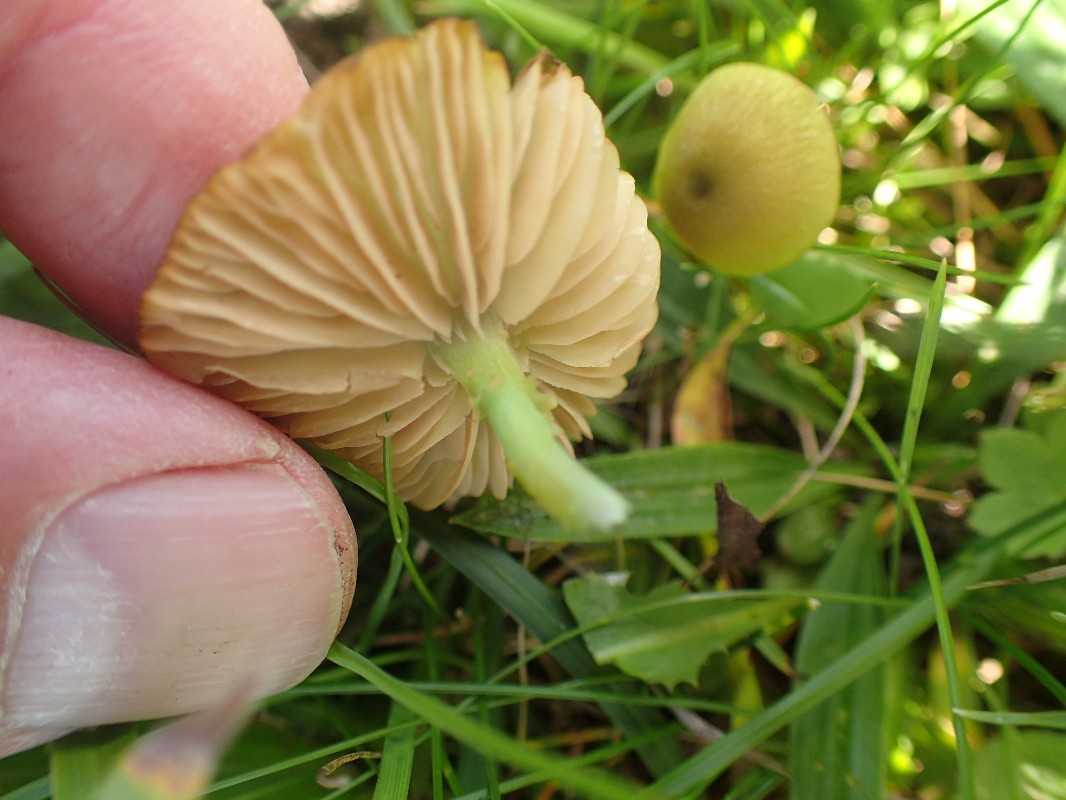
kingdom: Fungi
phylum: Basidiomycota
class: Agaricomycetes
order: Agaricales
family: Entolomataceae
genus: Entoloma
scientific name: Entoloma incanum
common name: grøngul rødblad
